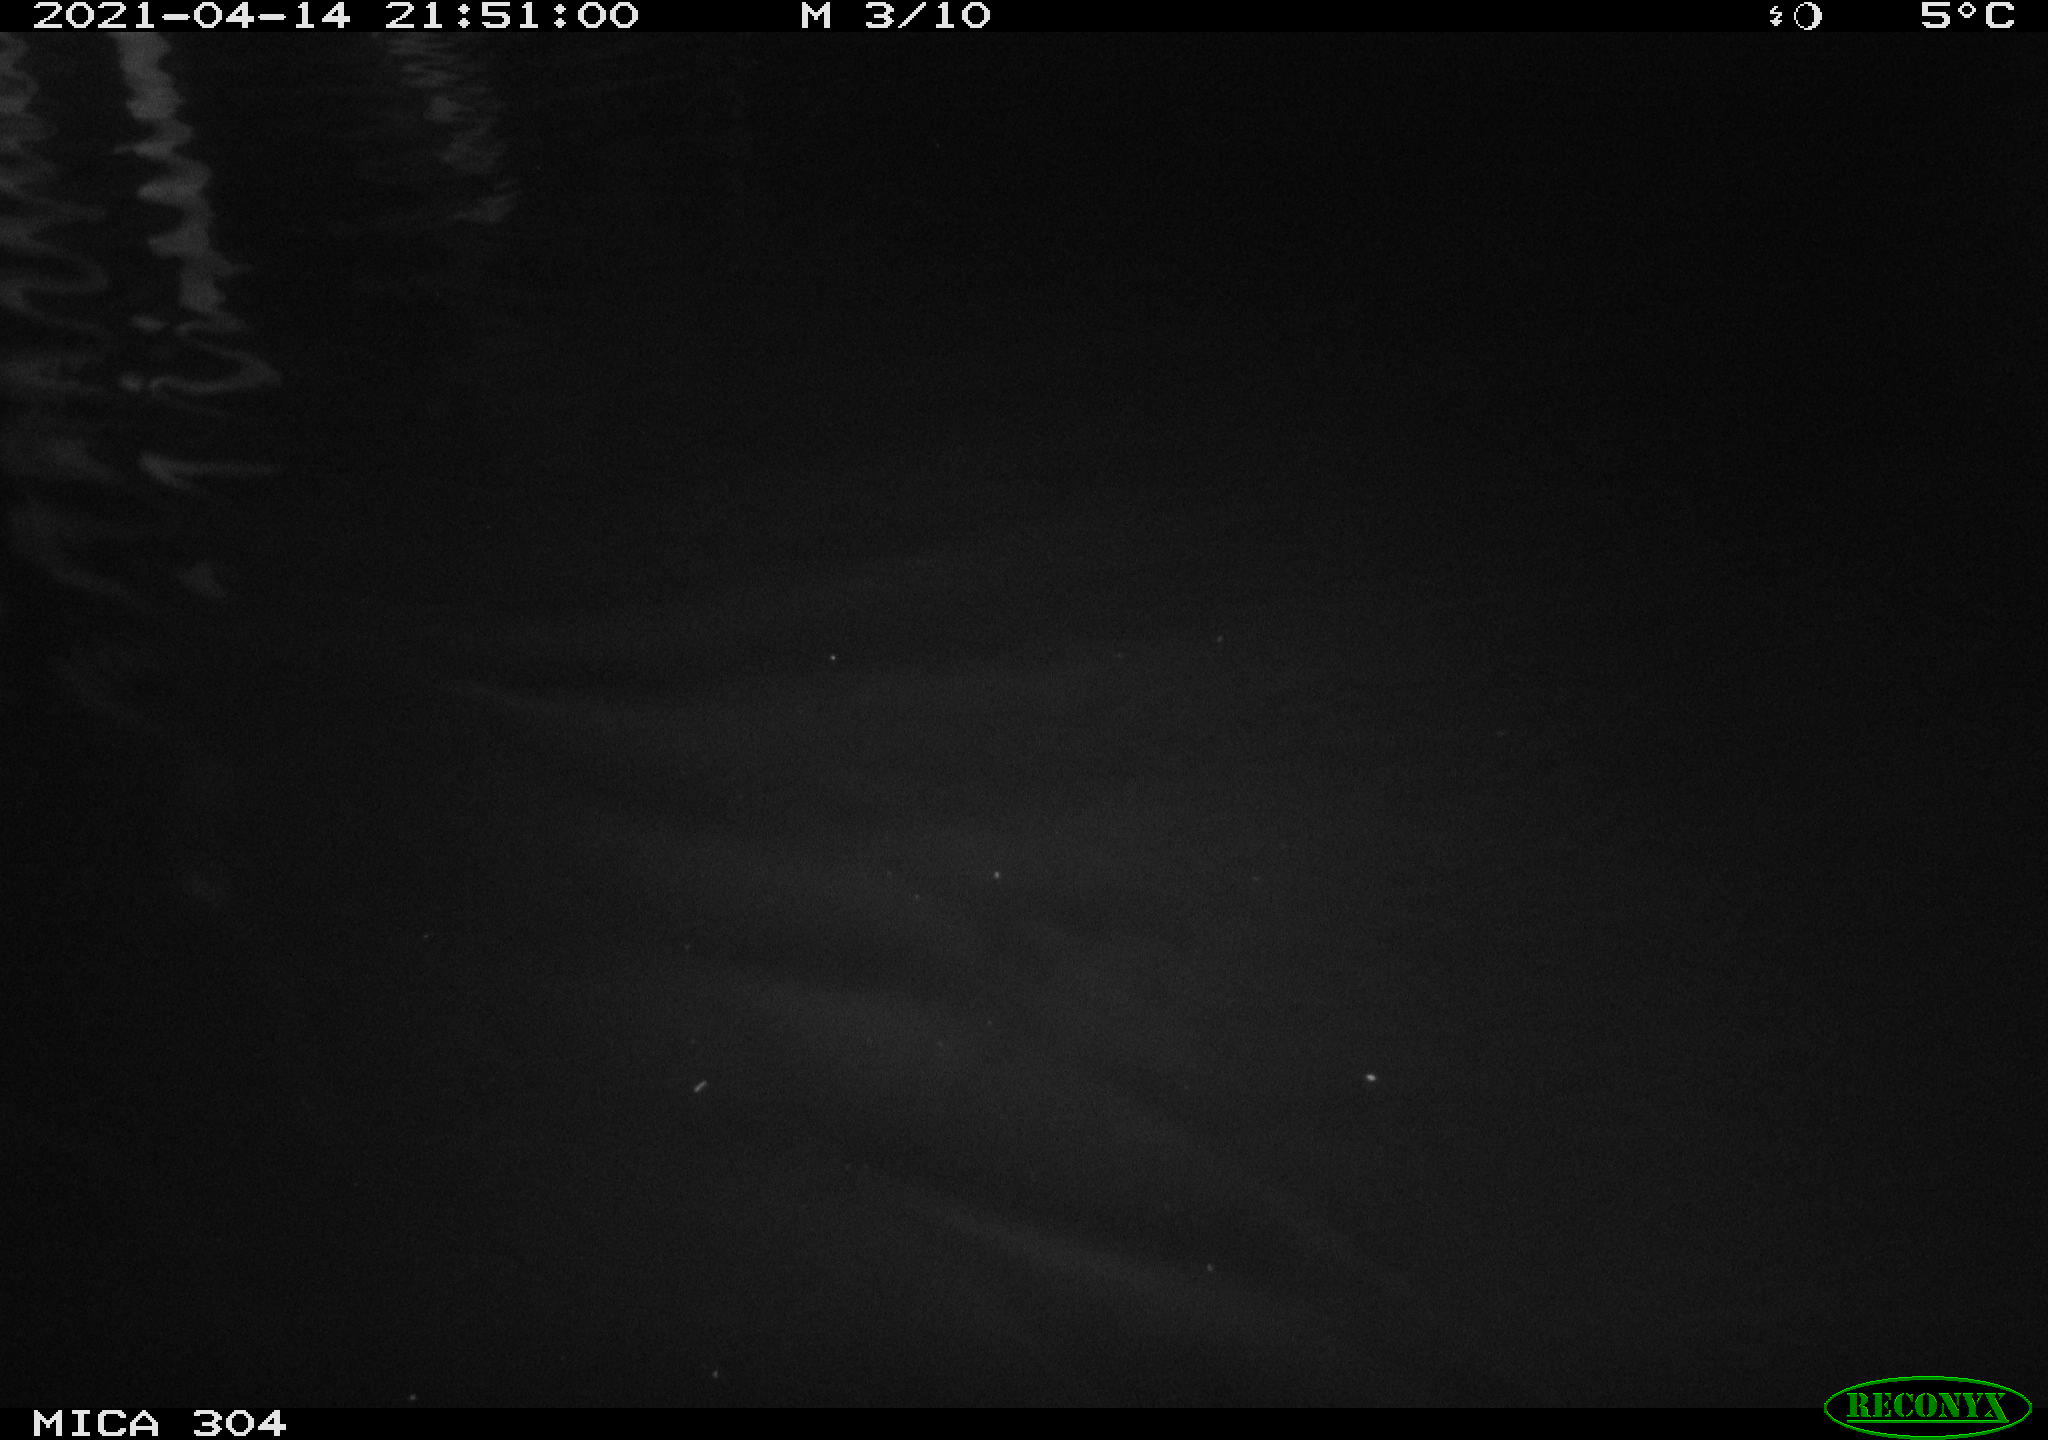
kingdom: Animalia
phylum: Chordata
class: Aves
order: Anseriformes
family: Anatidae
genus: Anas
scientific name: Anas
